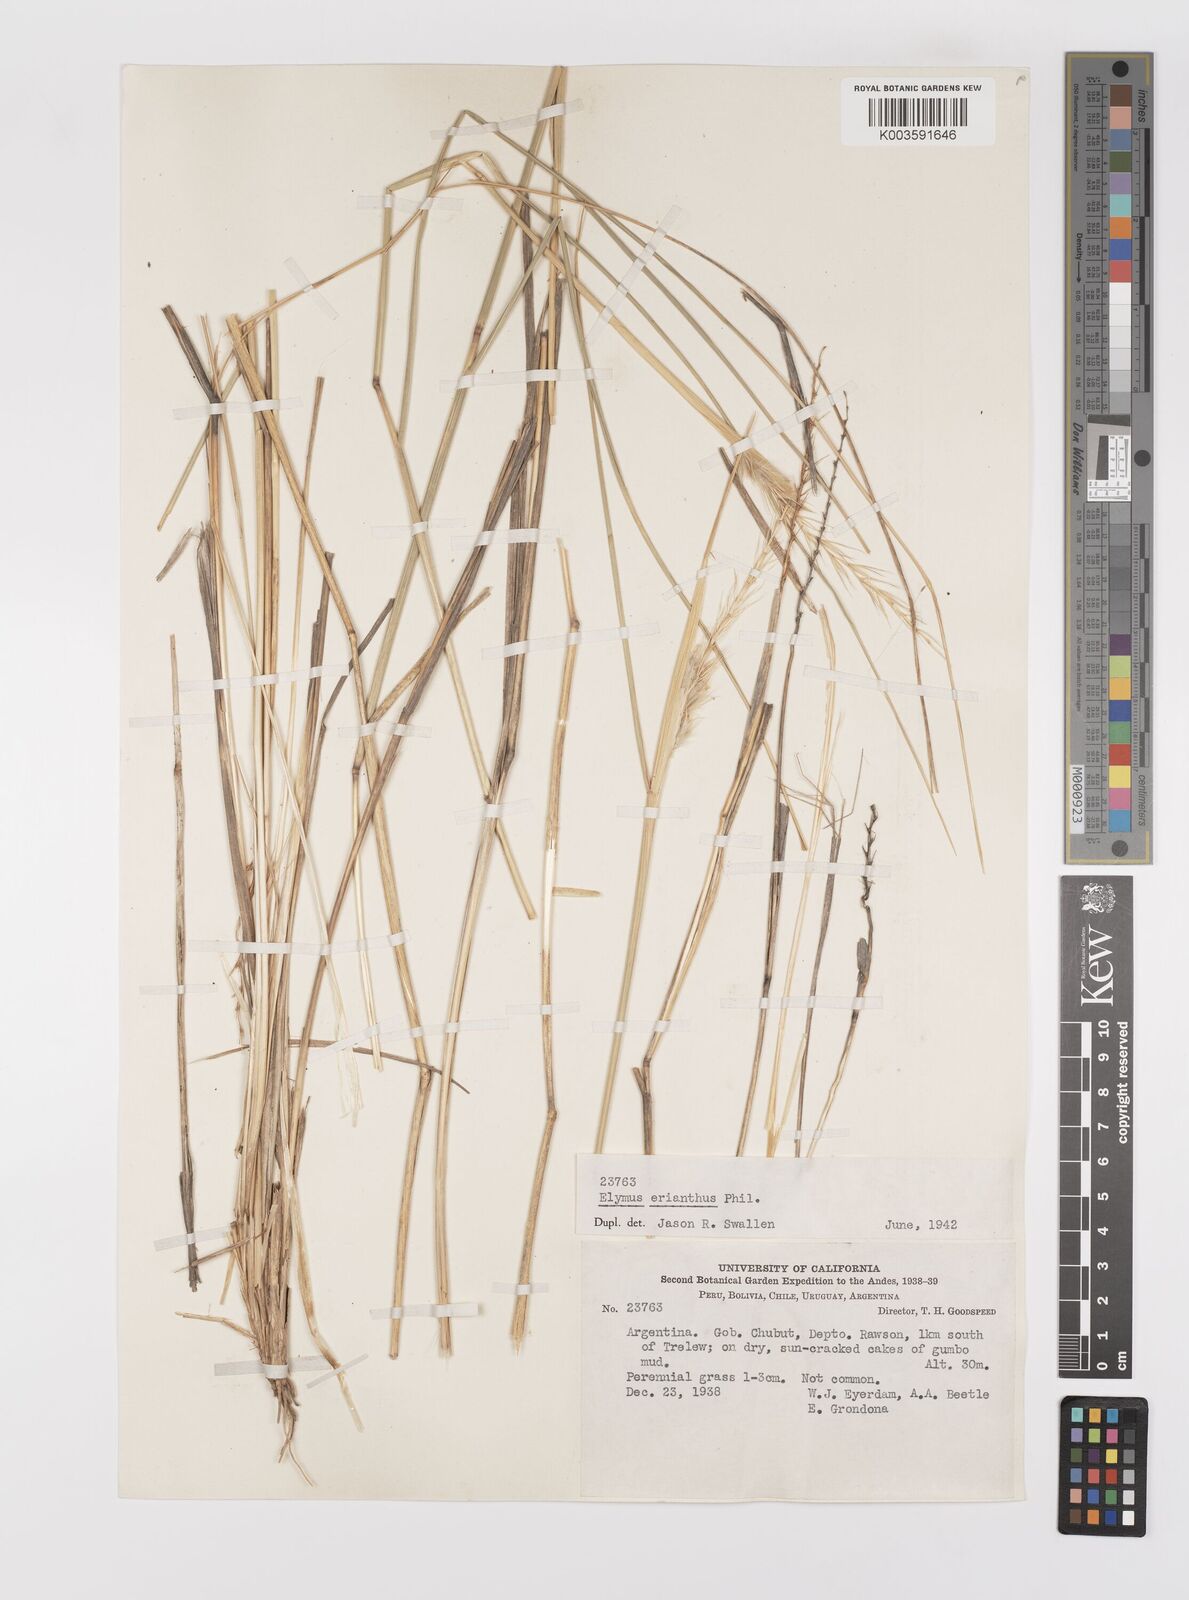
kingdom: Plantae
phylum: Tracheophyta
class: Liliopsida
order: Poales
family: Poaceae
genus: Leymus
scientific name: Leymus erianthus
